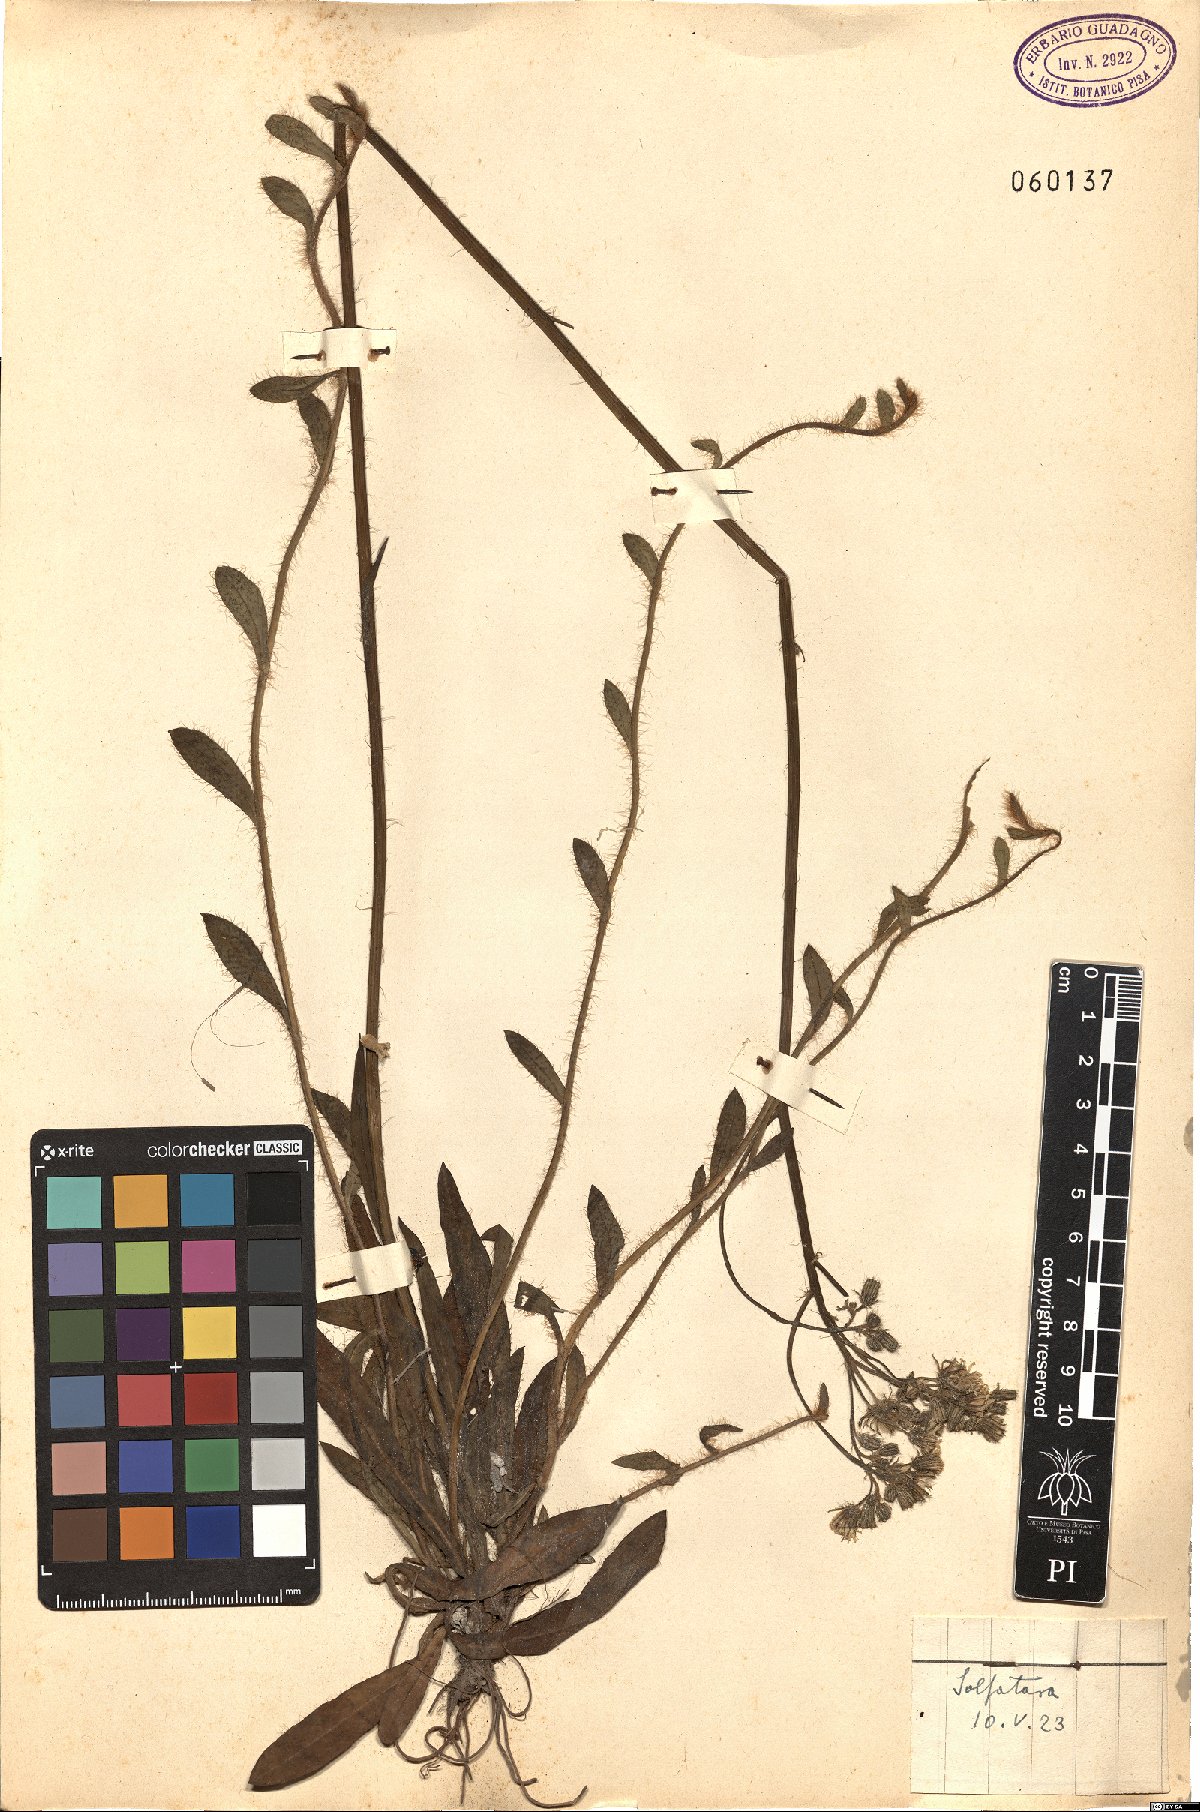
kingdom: Plantae
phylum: Tracheophyta
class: Magnoliopsida
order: Asterales
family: Asteraceae
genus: Pilosella
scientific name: Pilosella
